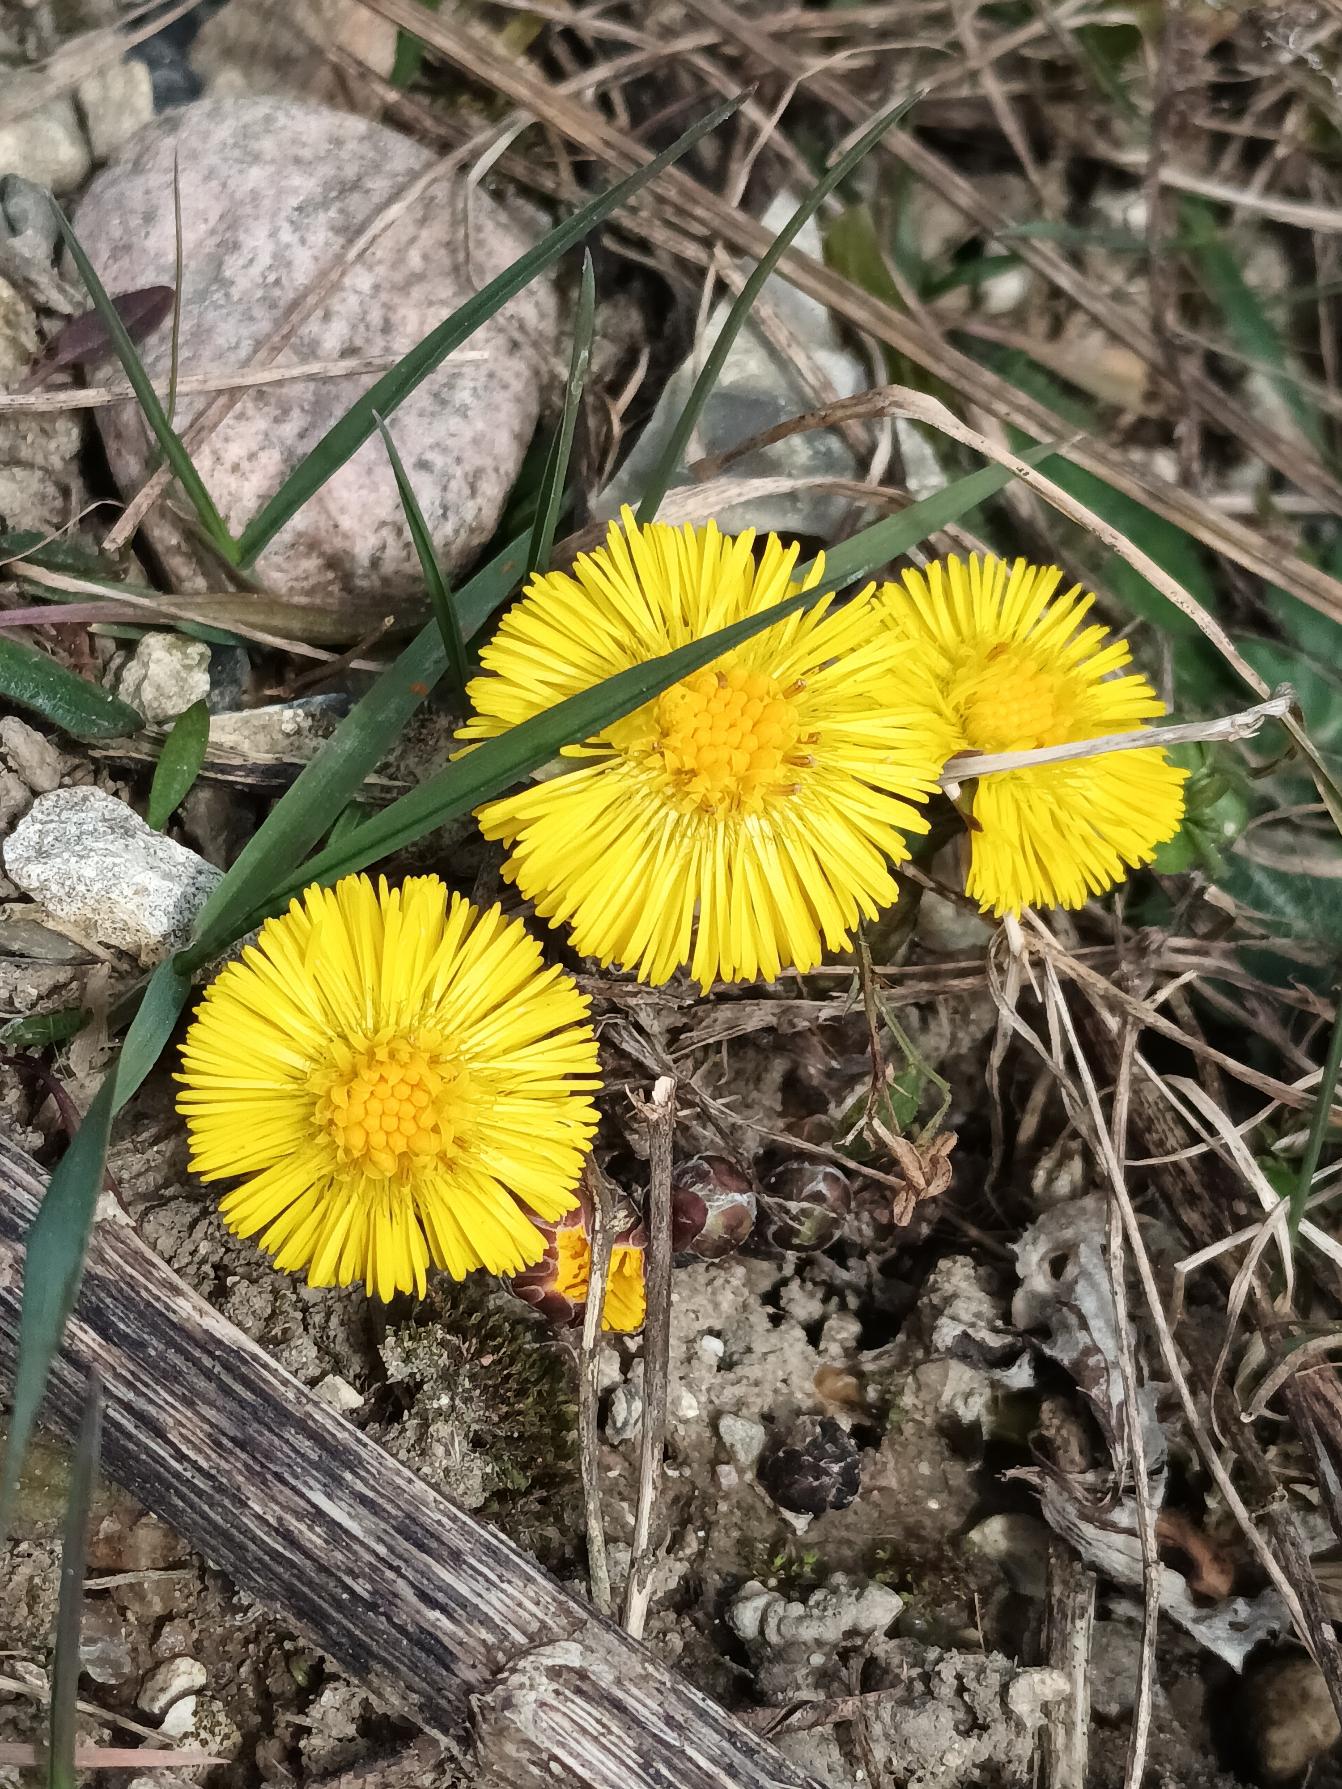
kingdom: Plantae
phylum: Tracheophyta
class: Magnoliopsida
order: Asterales
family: Asteraceae
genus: Tussilago
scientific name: Tussilago farfara
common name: Følfod
